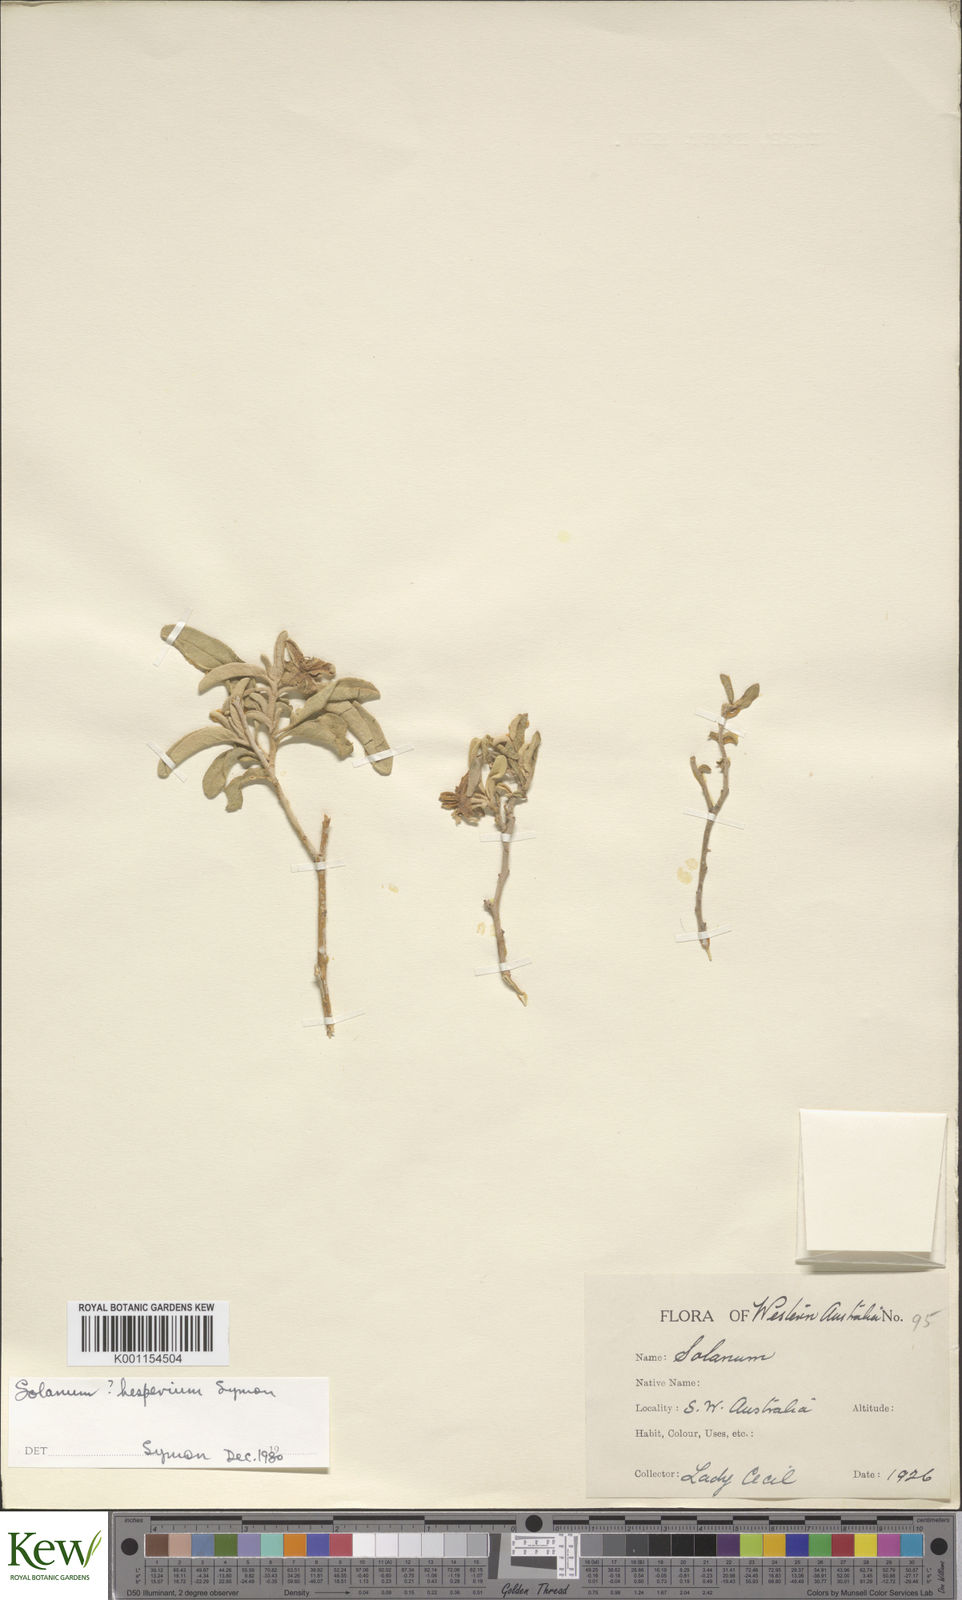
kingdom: Plantae
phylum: Tracheophyta
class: Magnoliopsida
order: Solanales
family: Solanaceae
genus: Solanum
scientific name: Solanum hesperium
